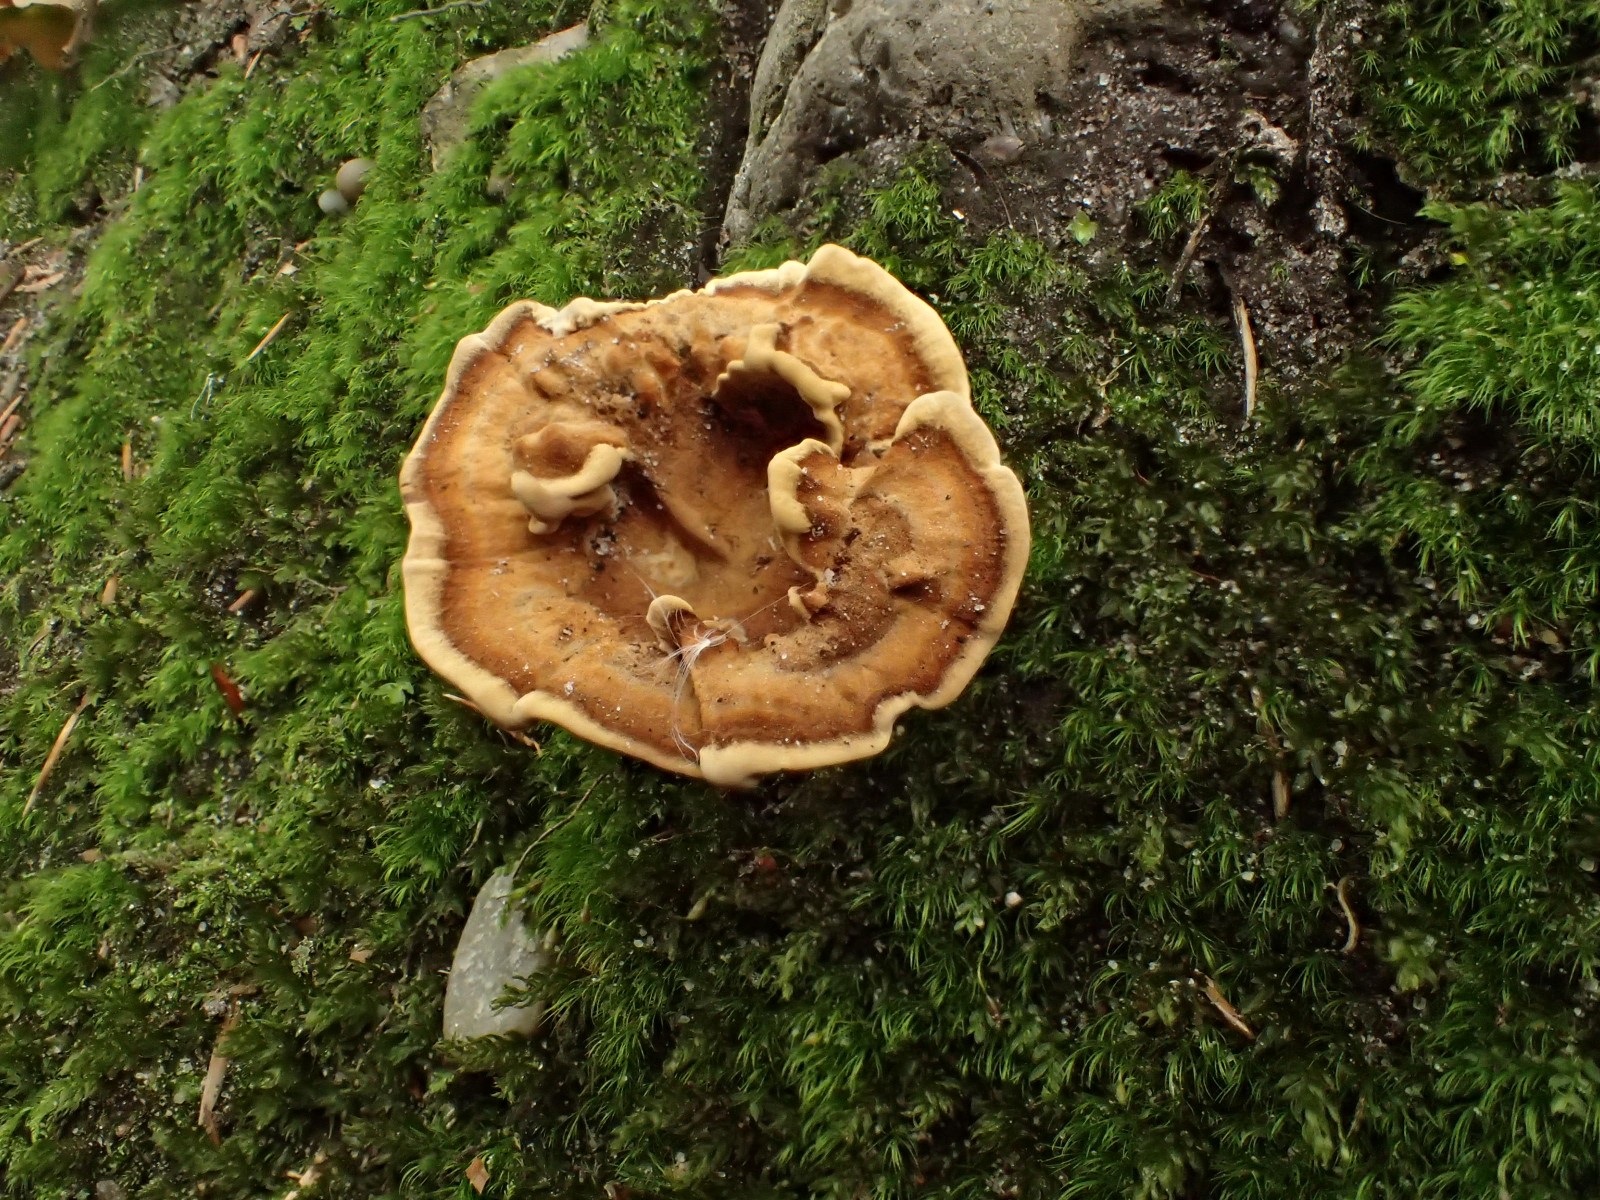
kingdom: Fungi
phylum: Basidiomycota
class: Agaricomycetes
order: Hymenochaetales
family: Hymenochaetaceae
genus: Coltricia
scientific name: Coltricia confluens
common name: park-sandporesvamp
